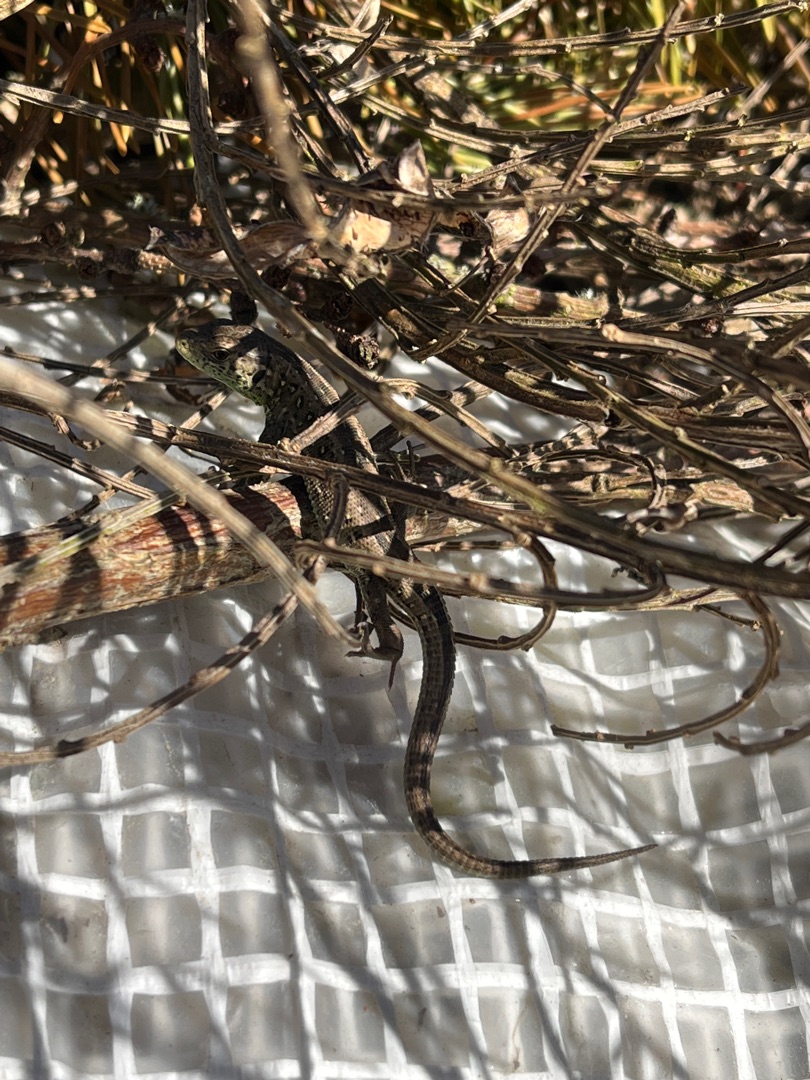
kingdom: Animalia
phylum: Chordata
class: Squamata
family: Lacertidae
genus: Lacerta
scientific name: Lacerta agilis
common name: Markfirben
